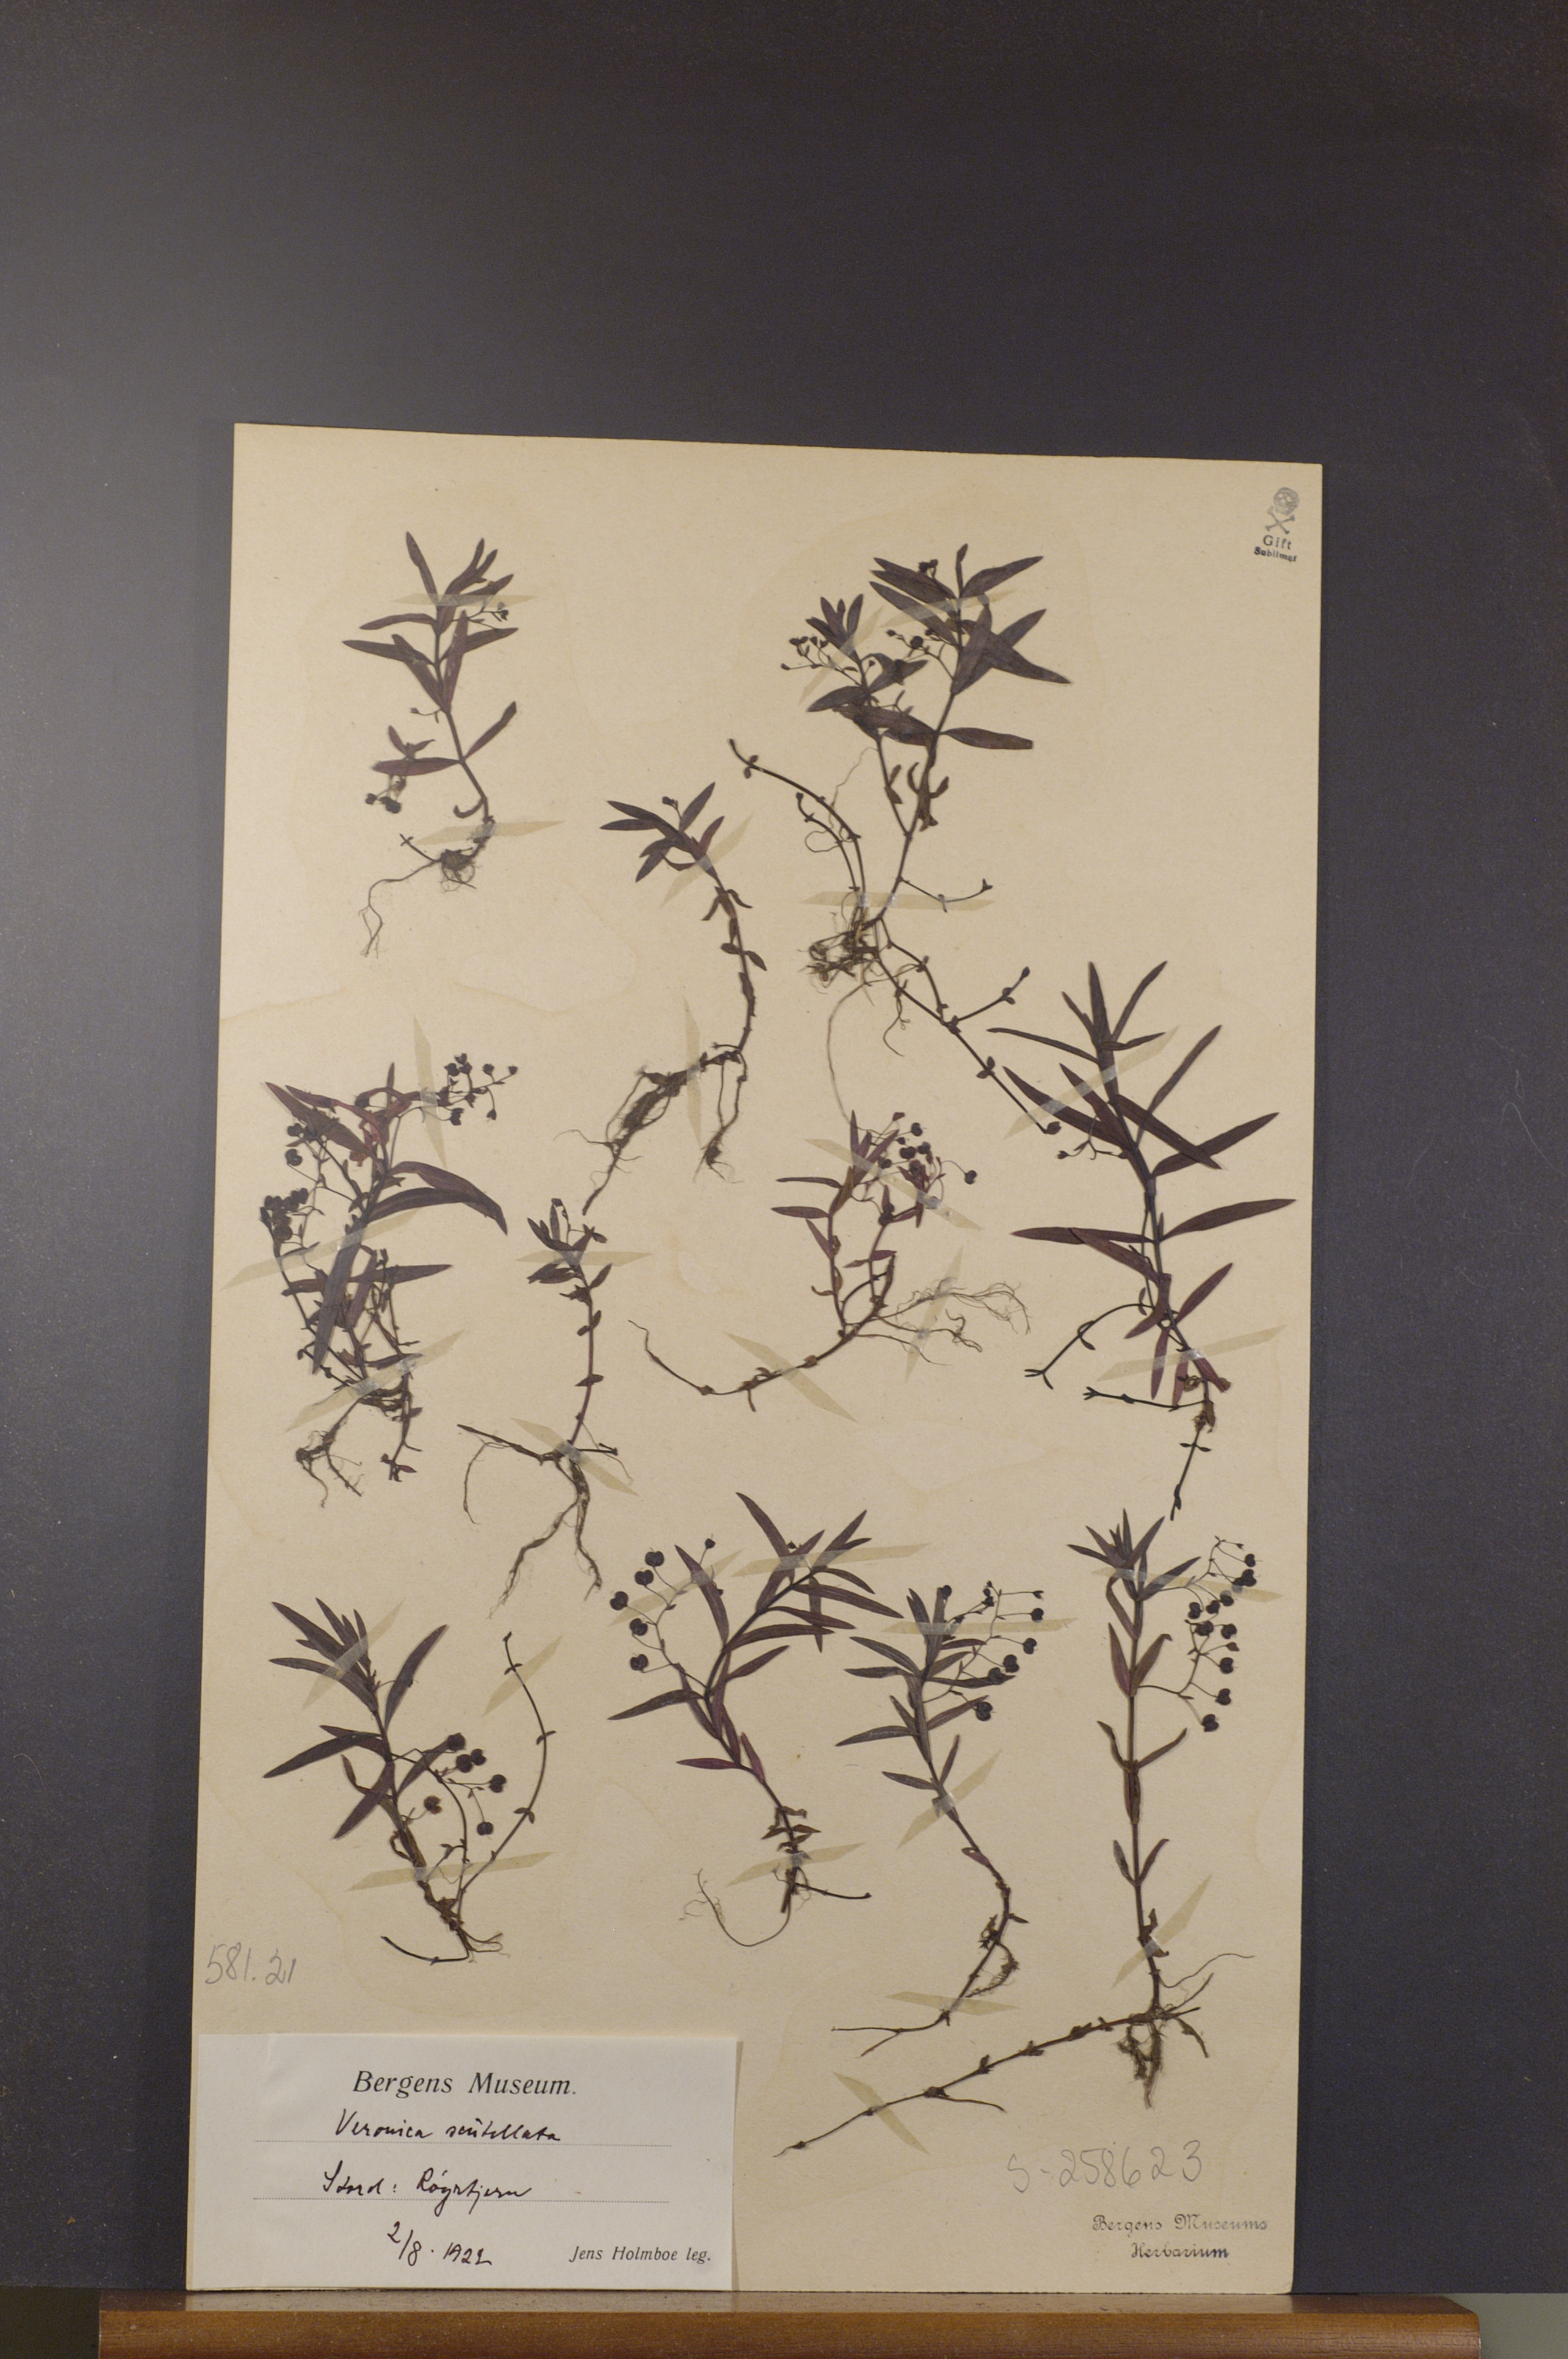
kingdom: Plantae
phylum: Tracheophyta
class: Magnoliopsida
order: Lamiales
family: Plantaginaceae
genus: Veronica
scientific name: Veronica scutellata
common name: Marsh speedwell
